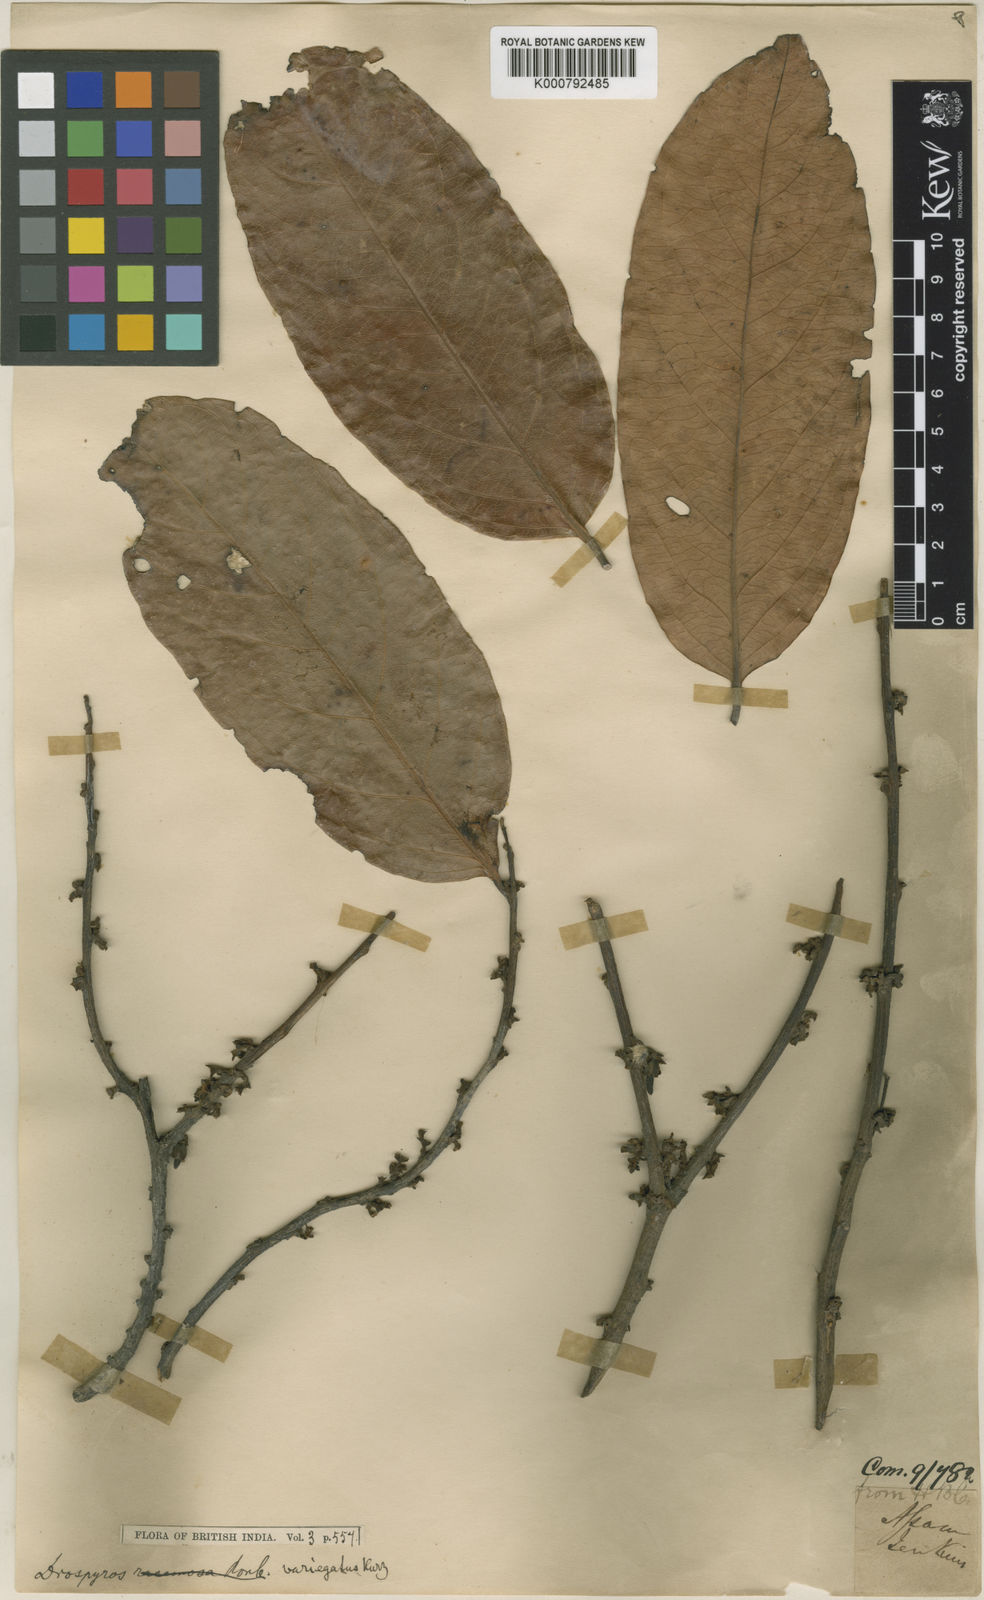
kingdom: Plantae
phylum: Tracheophyta
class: Magnoliopsida
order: Ericales
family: Ebenaceae
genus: Diospyros
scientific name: Diospyros variegata
